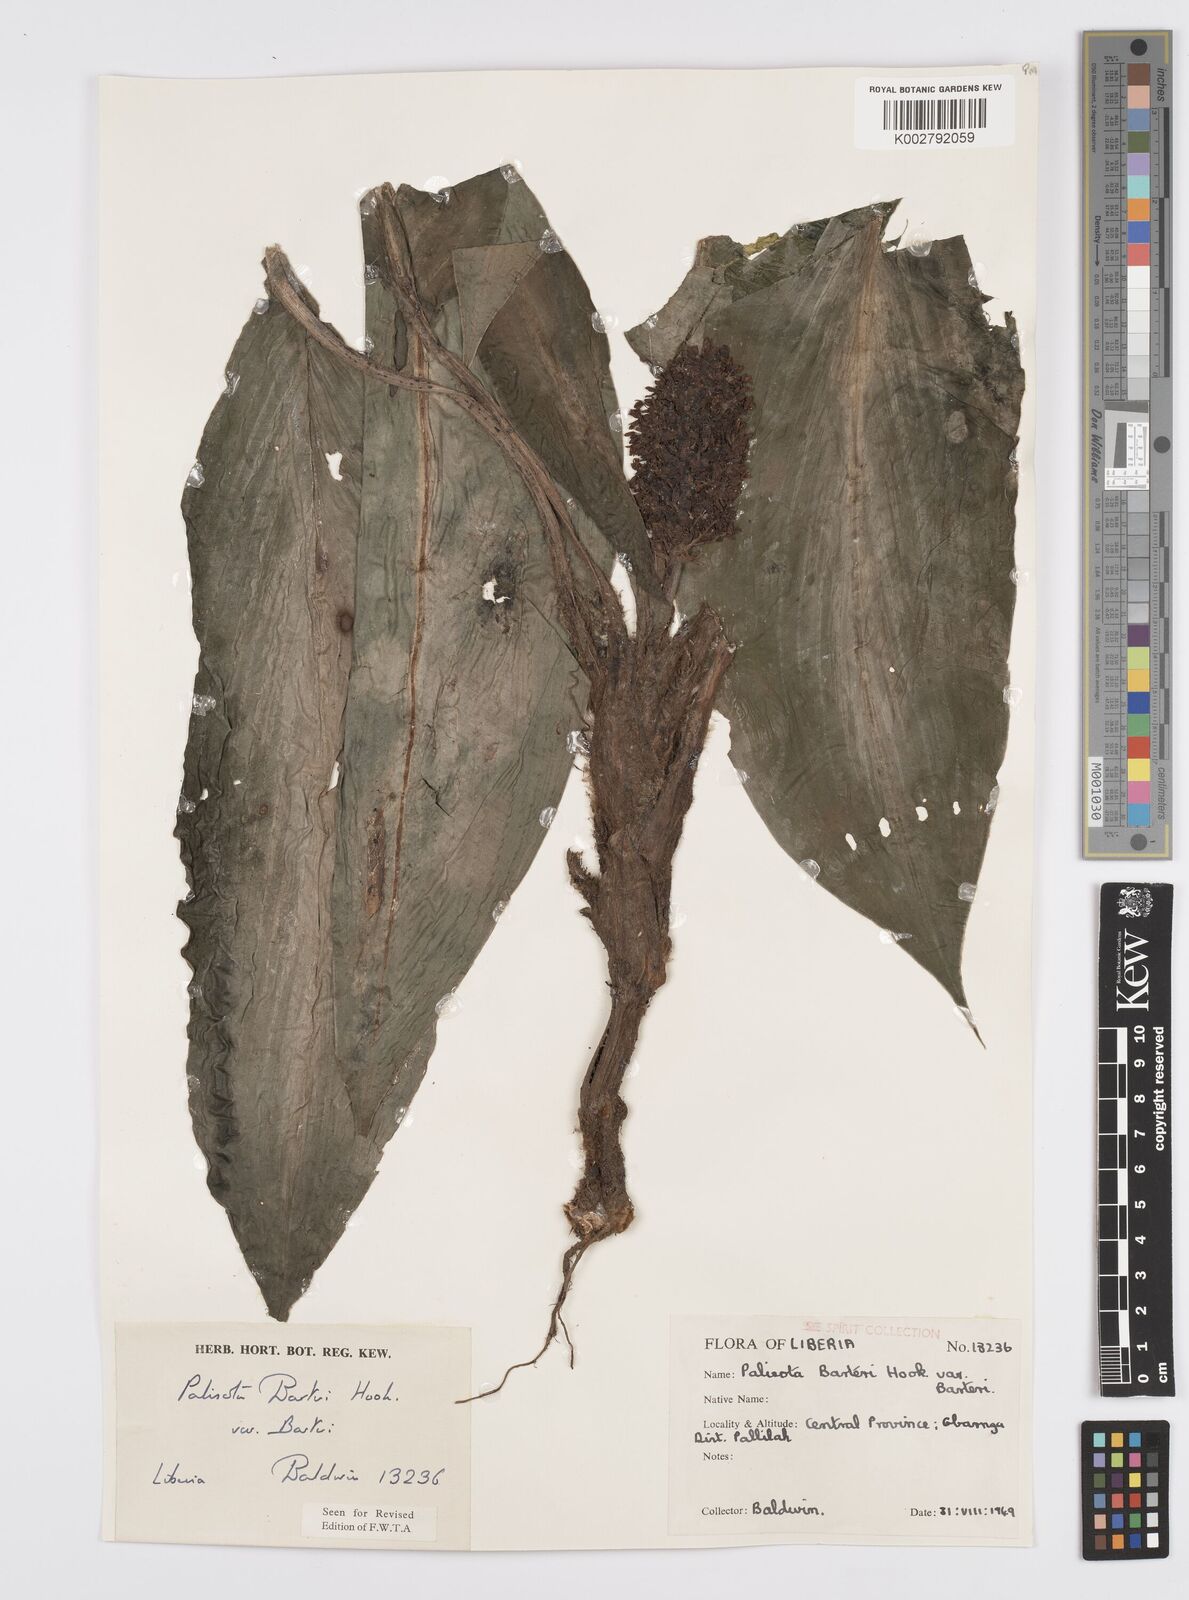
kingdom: Plantae
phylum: Tracheophyta
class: Liliopsida
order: Commelinales
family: Commelinaceae
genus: Palisota
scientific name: Palisota barteri
